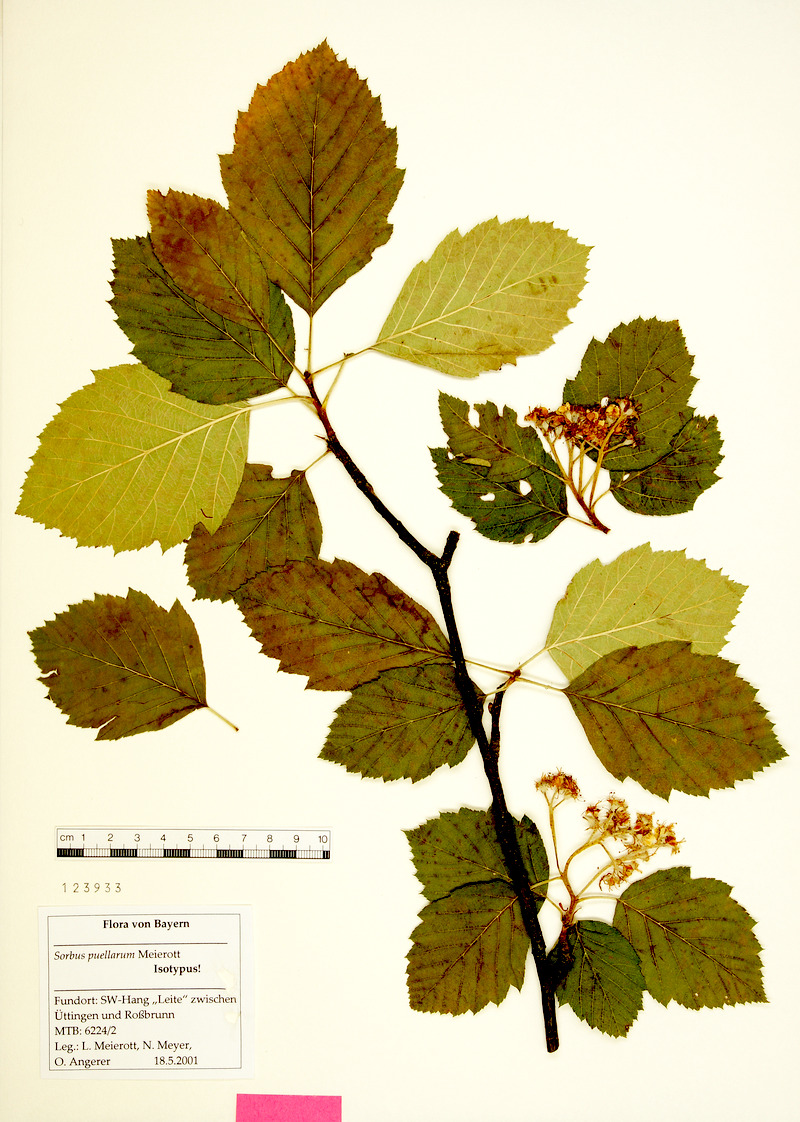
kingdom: Plantae
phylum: Tracheophyta
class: Magnoliopsida
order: Rosales
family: Rosaceae
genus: Karpatiosorbus
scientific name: Karpatiosorbus puellarum
